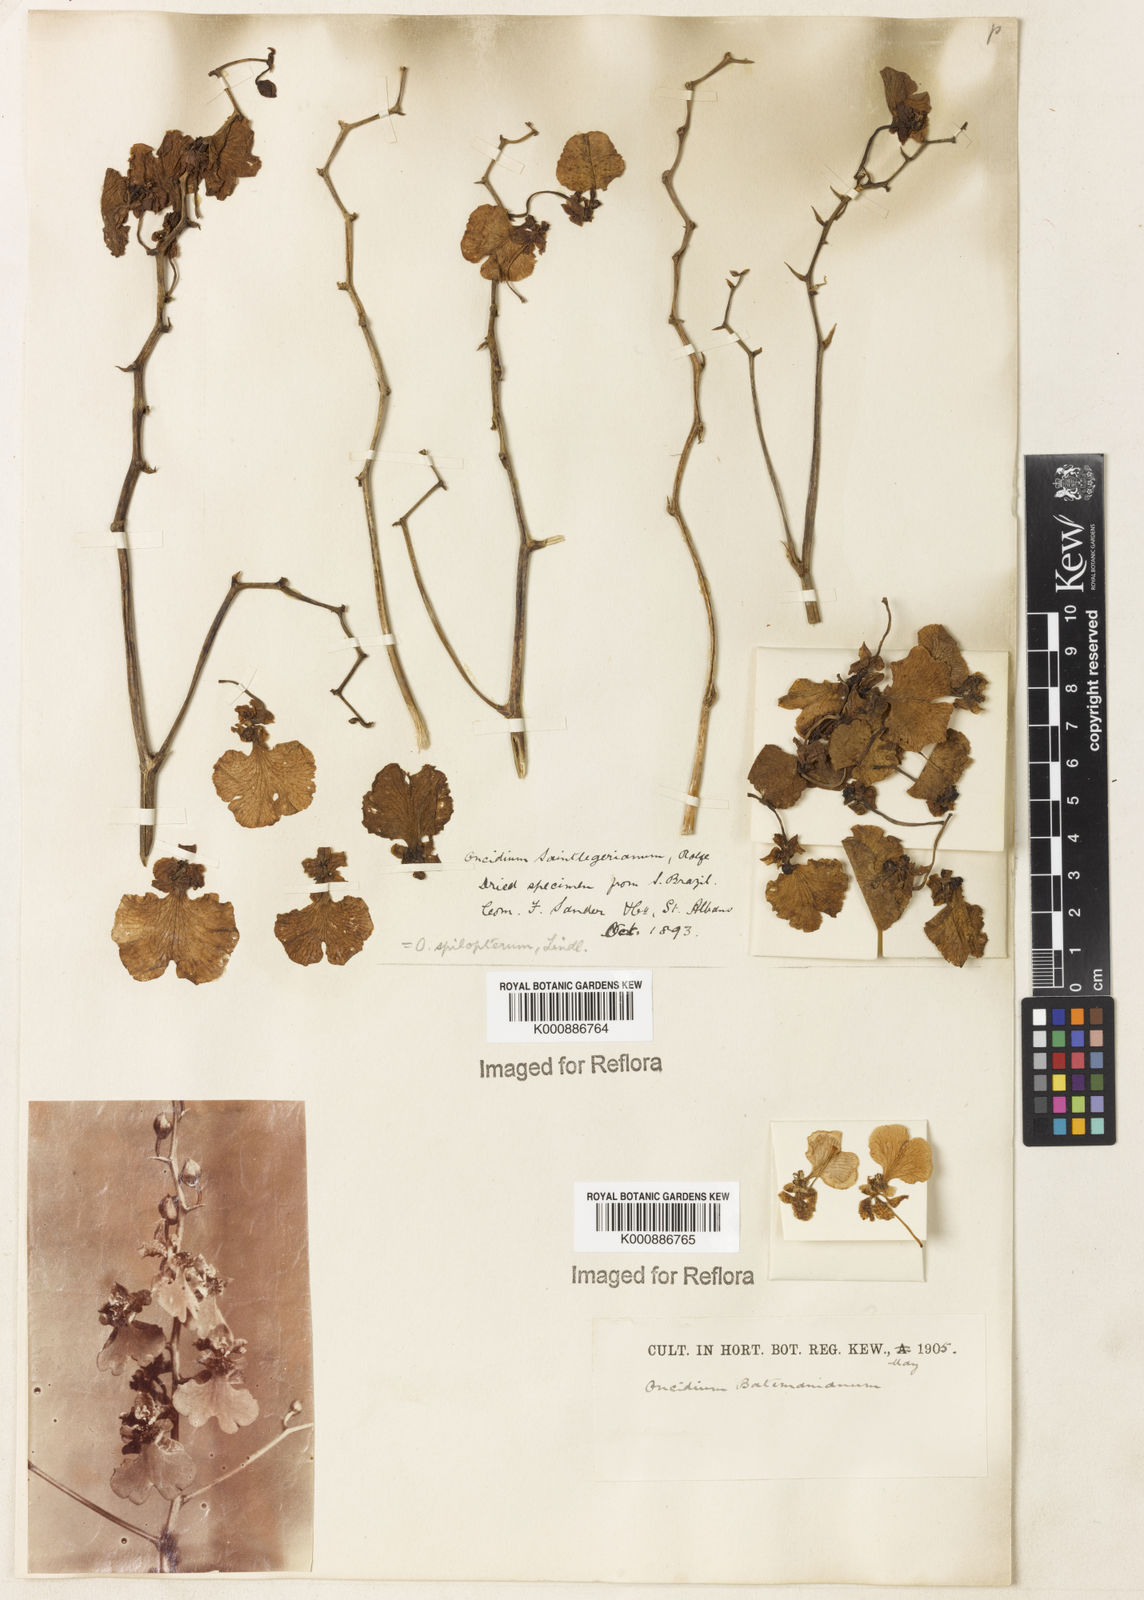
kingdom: Plantae
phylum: Tracheophyta
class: Liliopsida
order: Asparagales
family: Orchidaceae
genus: Gomesa
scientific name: Gomesa maculosa
